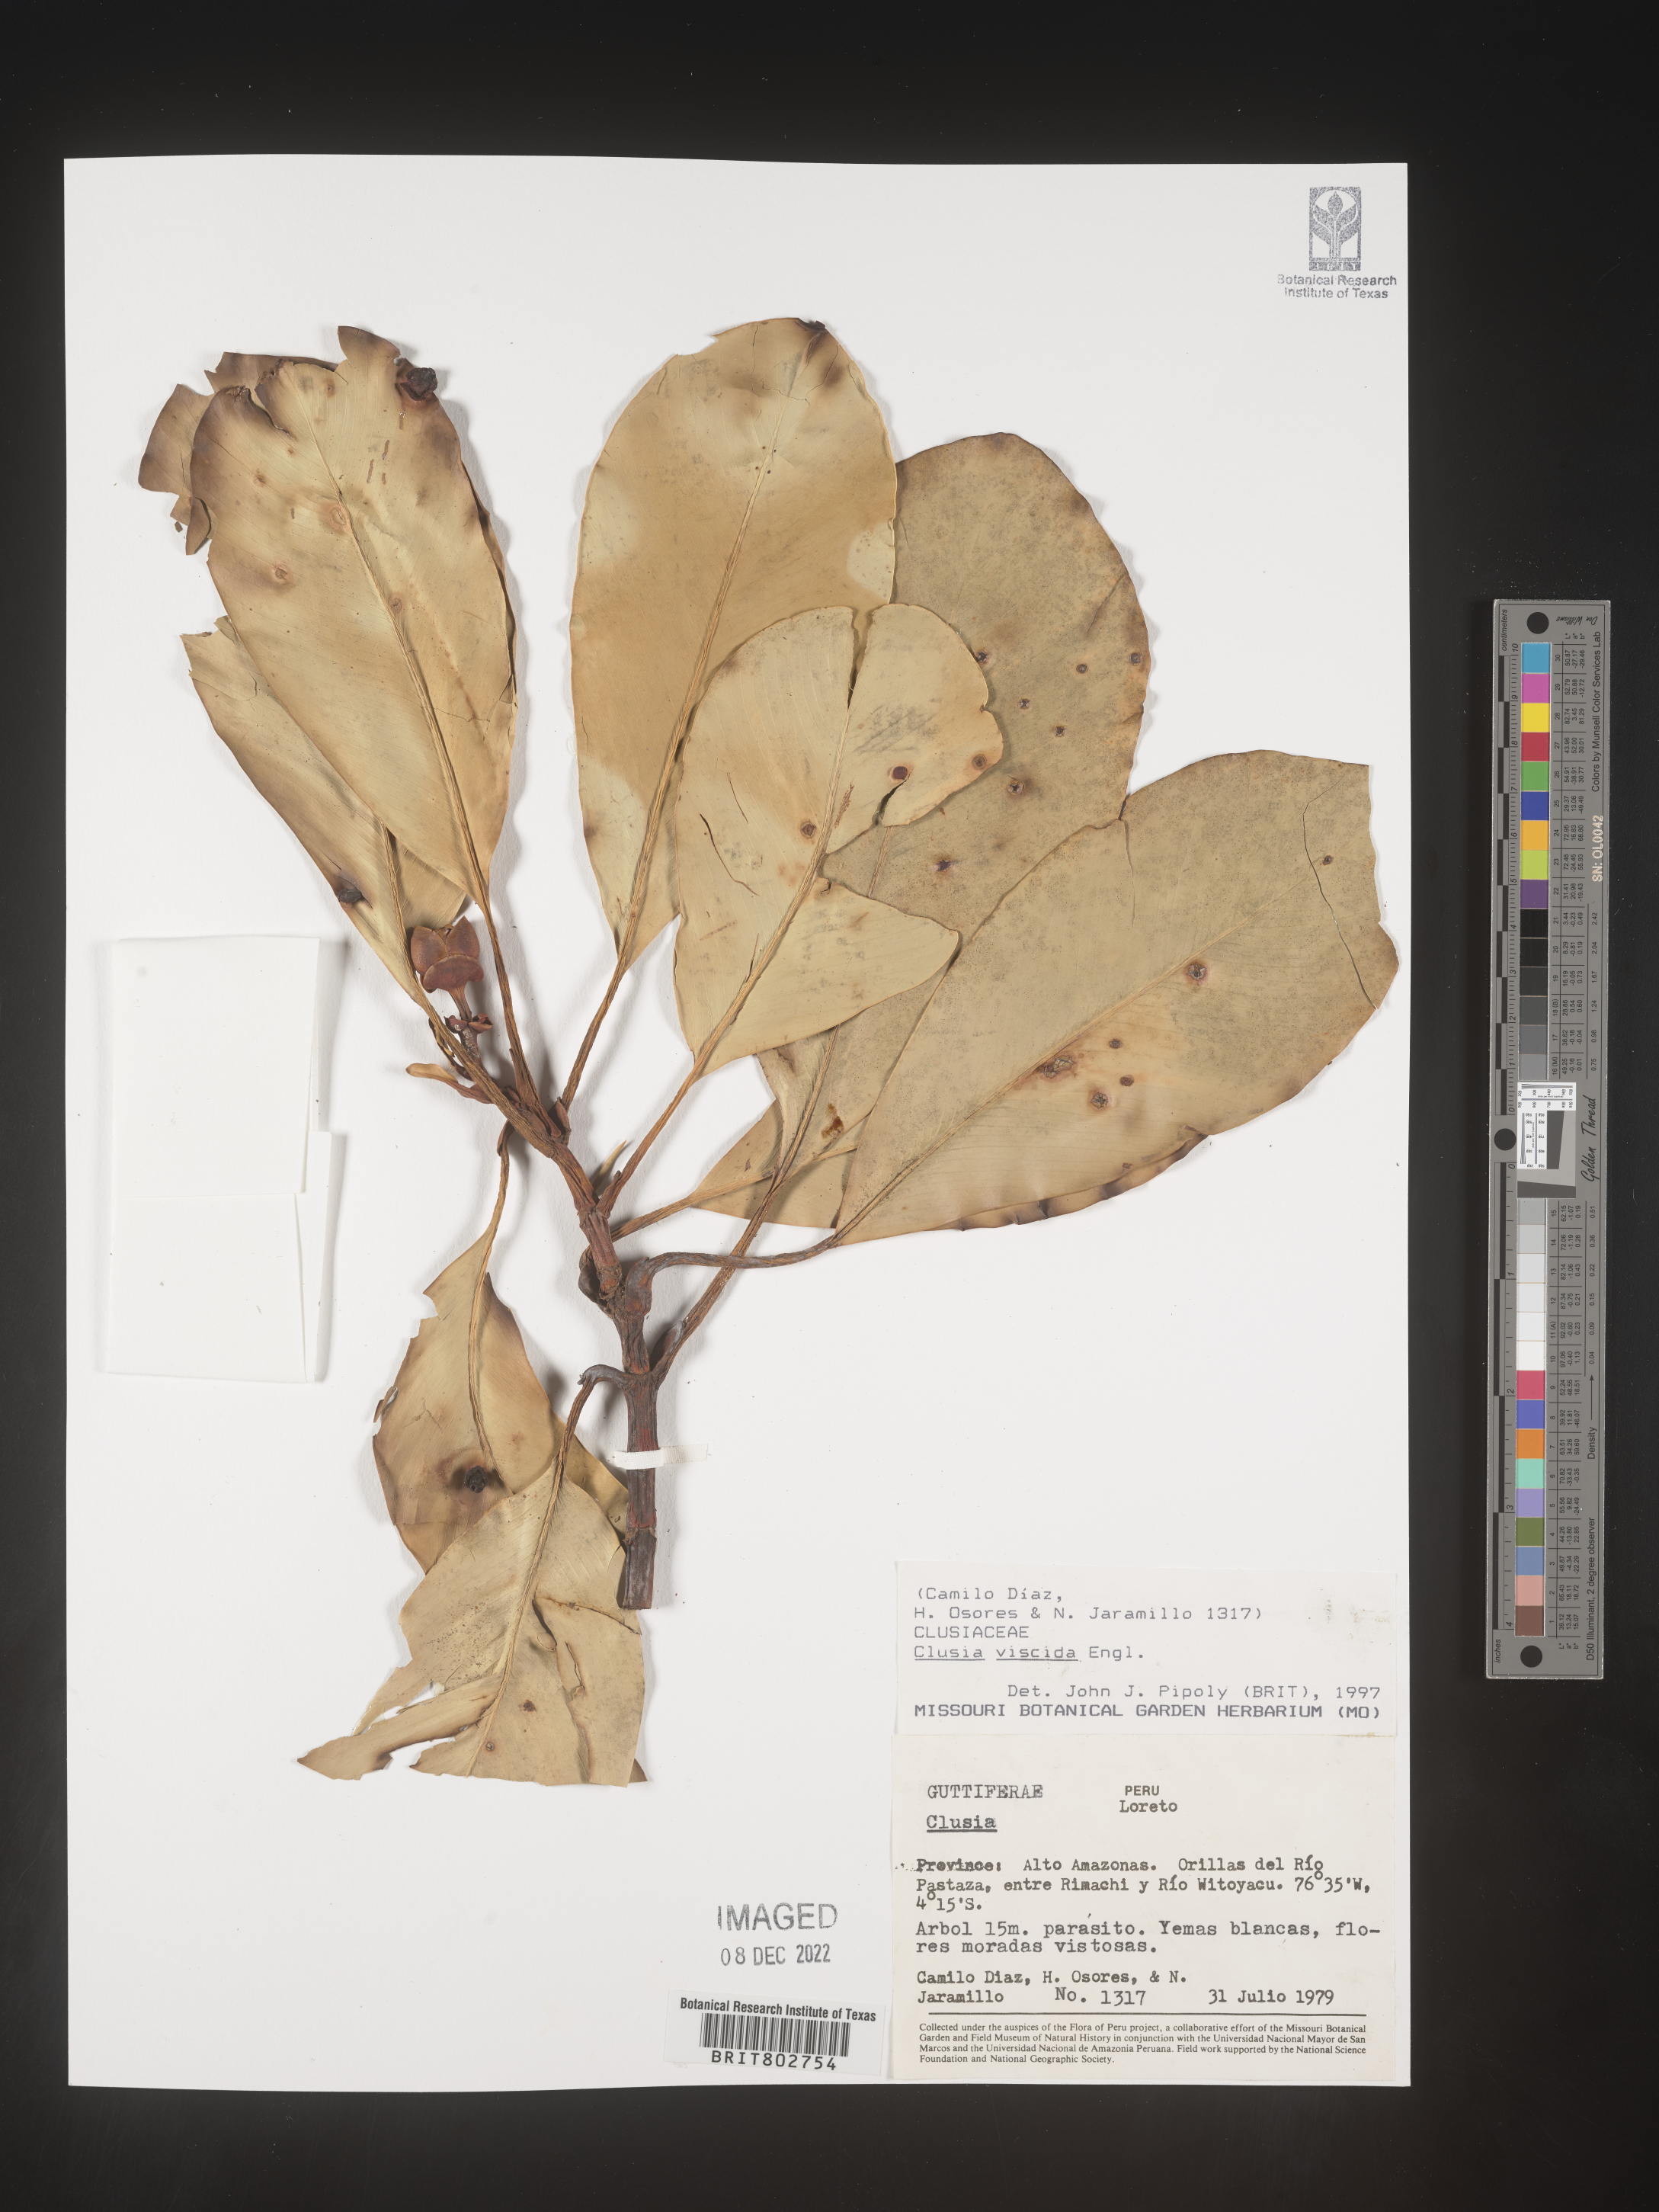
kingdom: Plantae
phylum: Tracheophyta
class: Magnoliopsida
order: Malpighiales
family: Clusiaceae
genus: Clusia
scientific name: Clusia viscida
